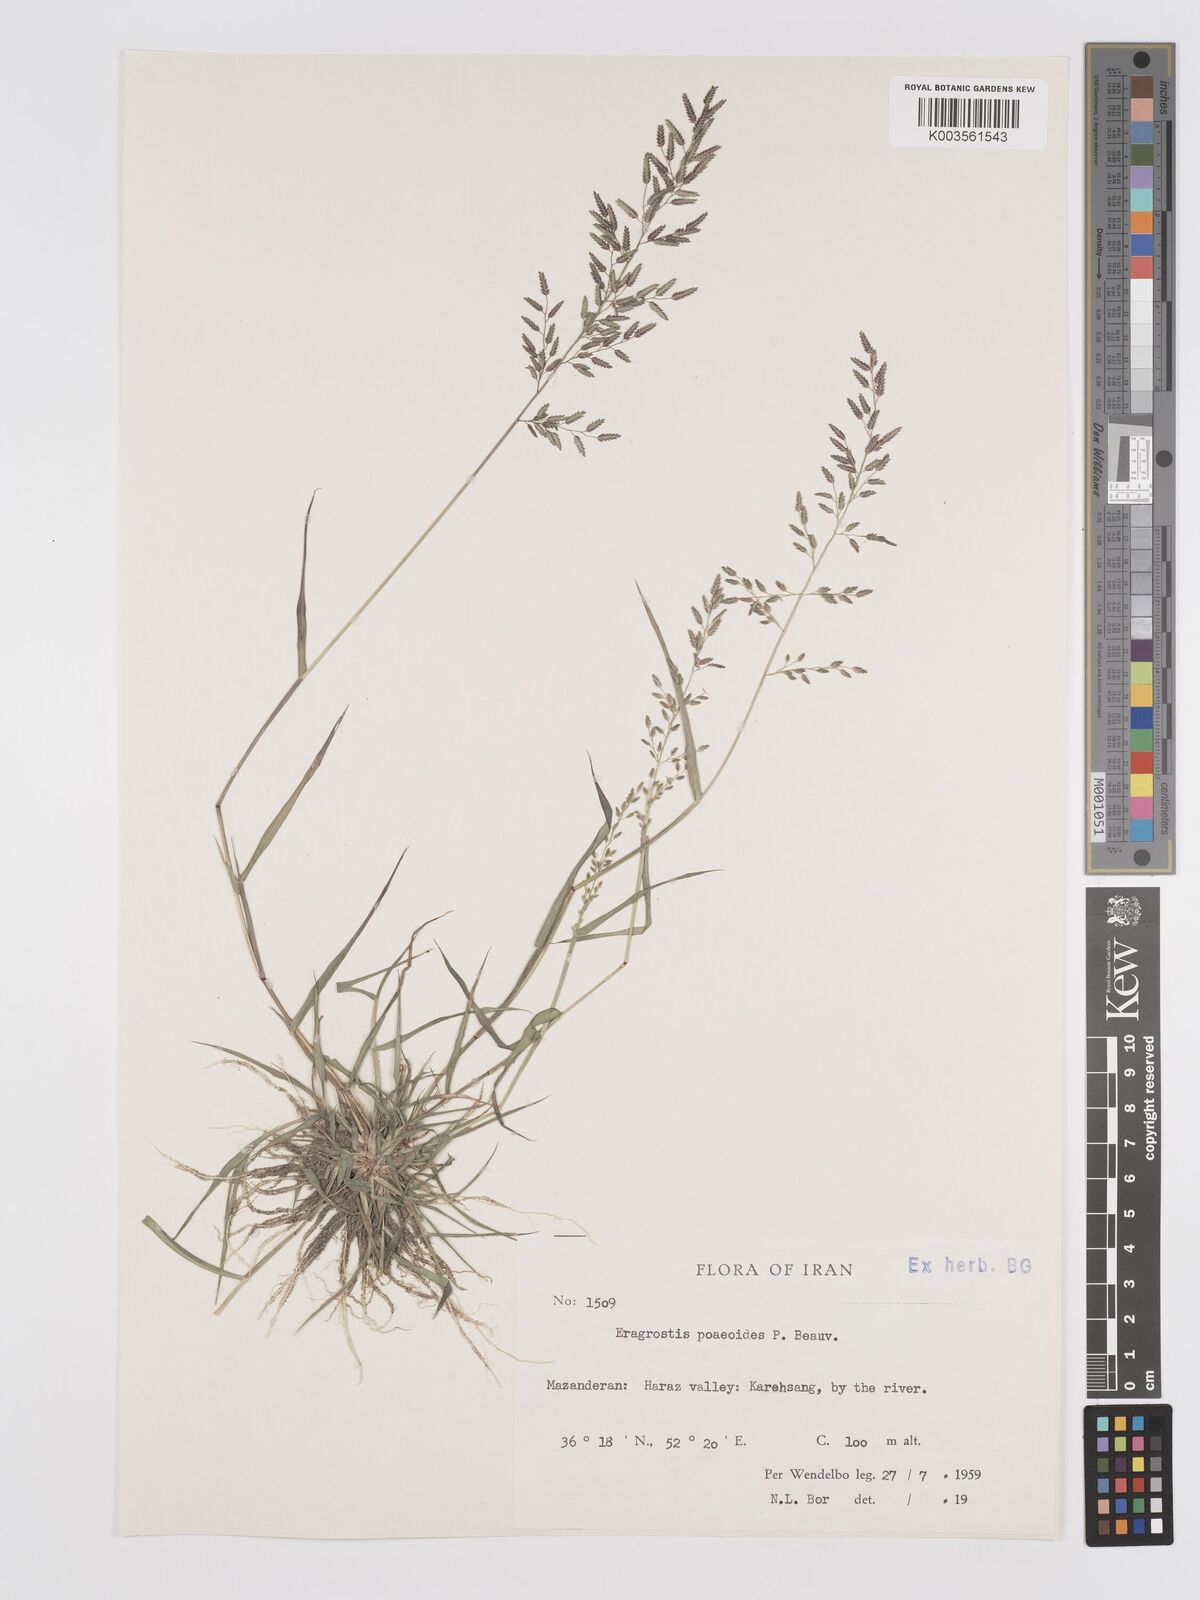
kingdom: Plantae
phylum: Tracheophyta
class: Liliopsida
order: Poales
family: Poaceae
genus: Eragrostis
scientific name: Eragrostis minor
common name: Small love-grass
